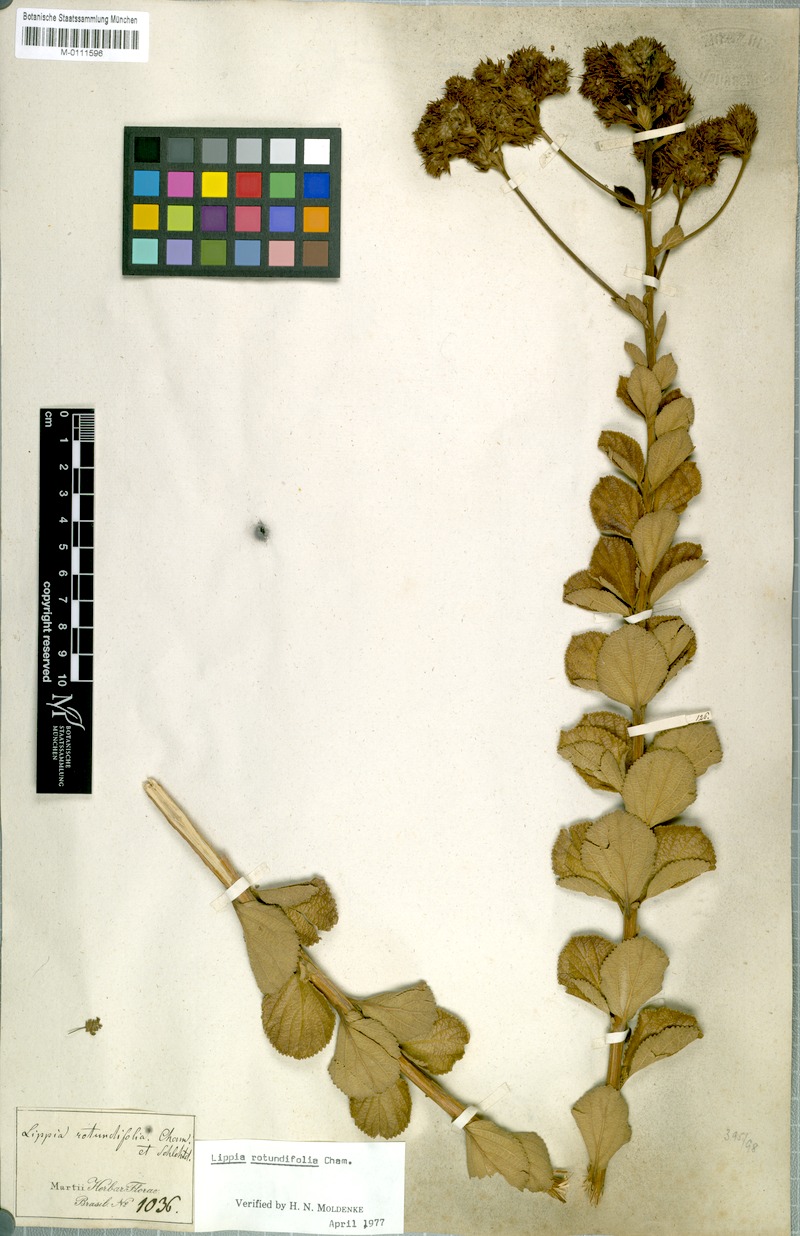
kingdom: Plantae
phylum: Tracheophyta
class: Magnoliopsida
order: Lamiales
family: Verbenaceae
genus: Lippia
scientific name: Lippia rotundifolia
